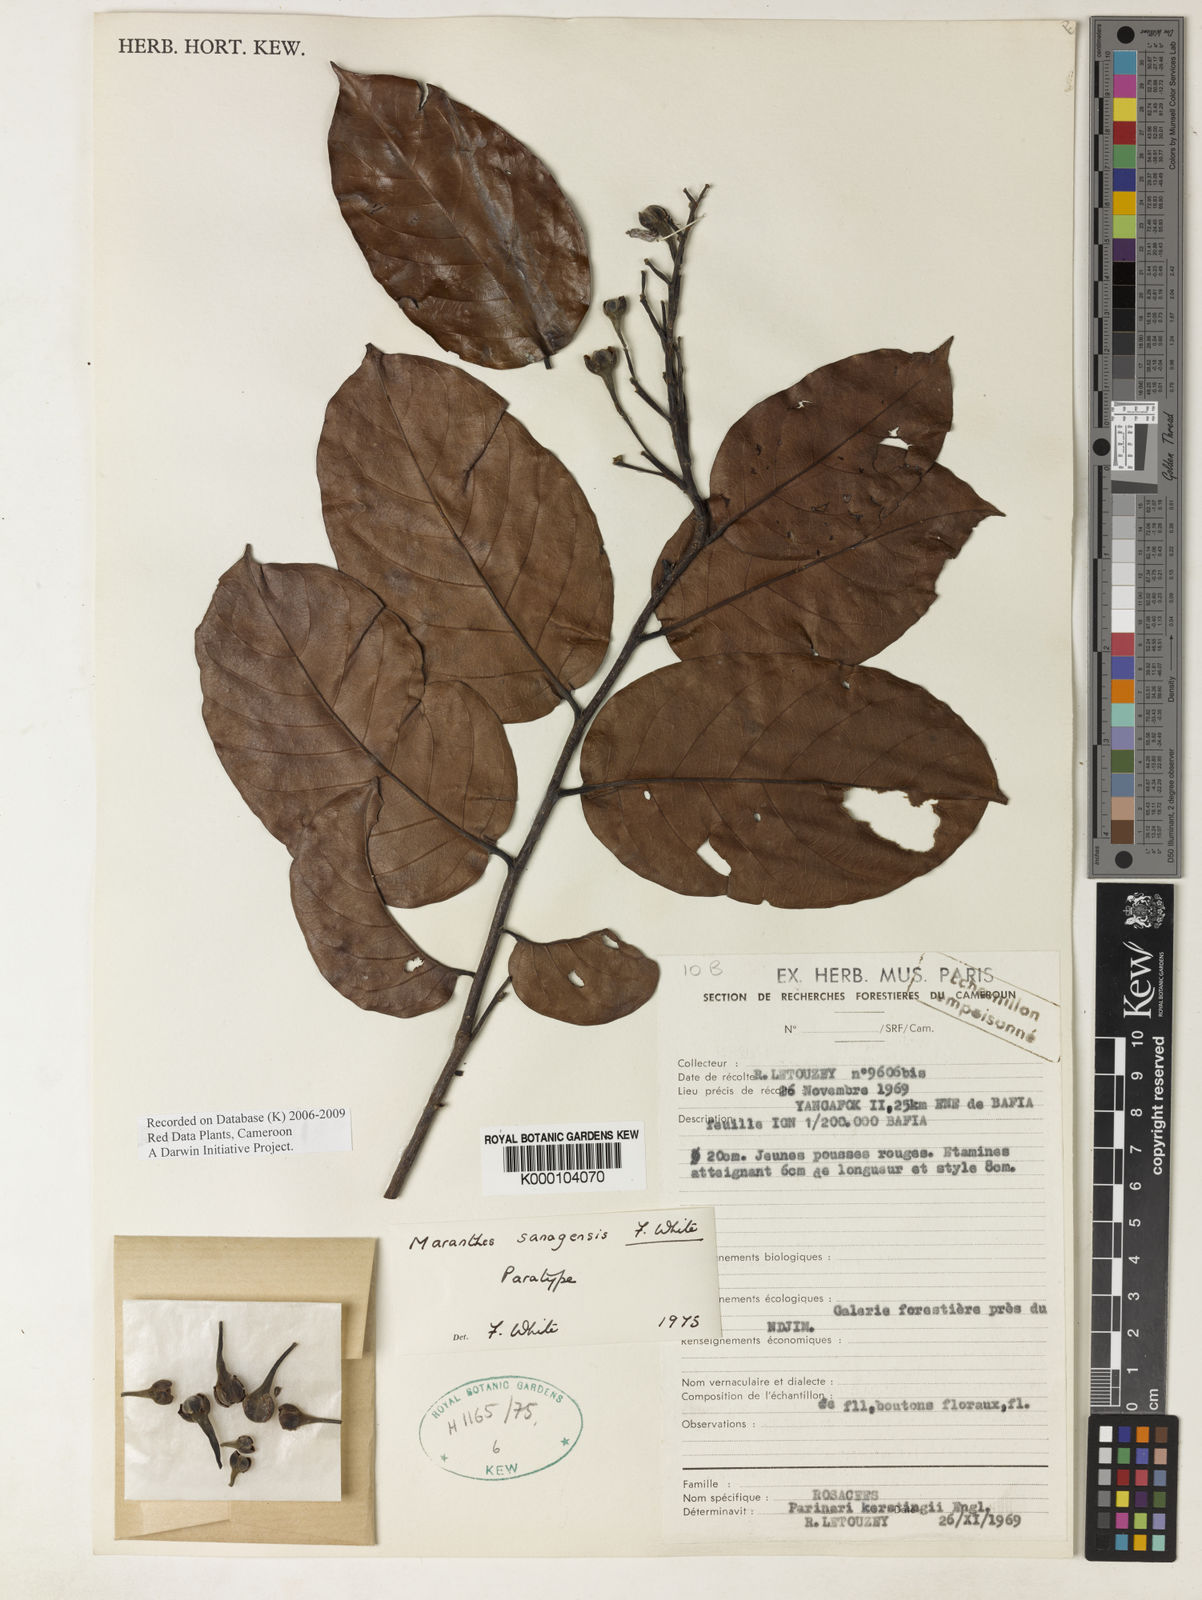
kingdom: Plantae
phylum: Tracheophyta
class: Magnoliopsida
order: Malpighiales
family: Chrysobalanaceae
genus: Maranthes
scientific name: Maranthes sanagensis
